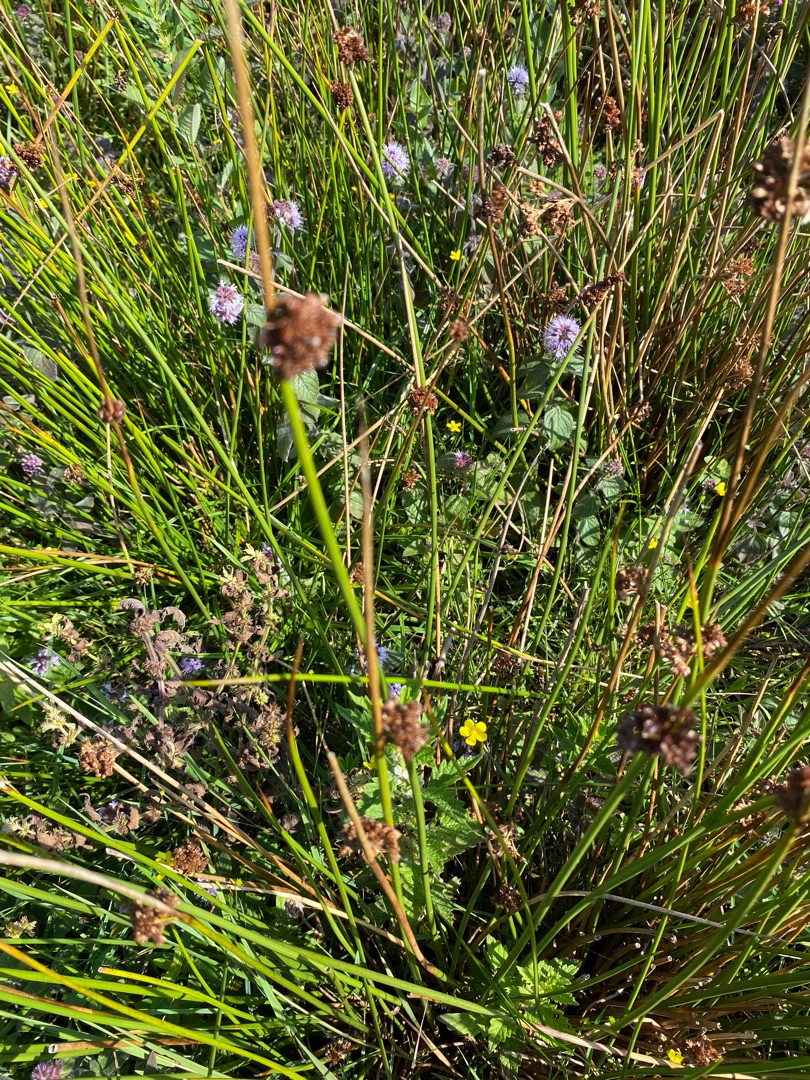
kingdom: Plantae
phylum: Tracheophyta
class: Liliopsida
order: Poales
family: Juncaceae
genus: Juncus
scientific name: Juncus
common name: Sivslægten
